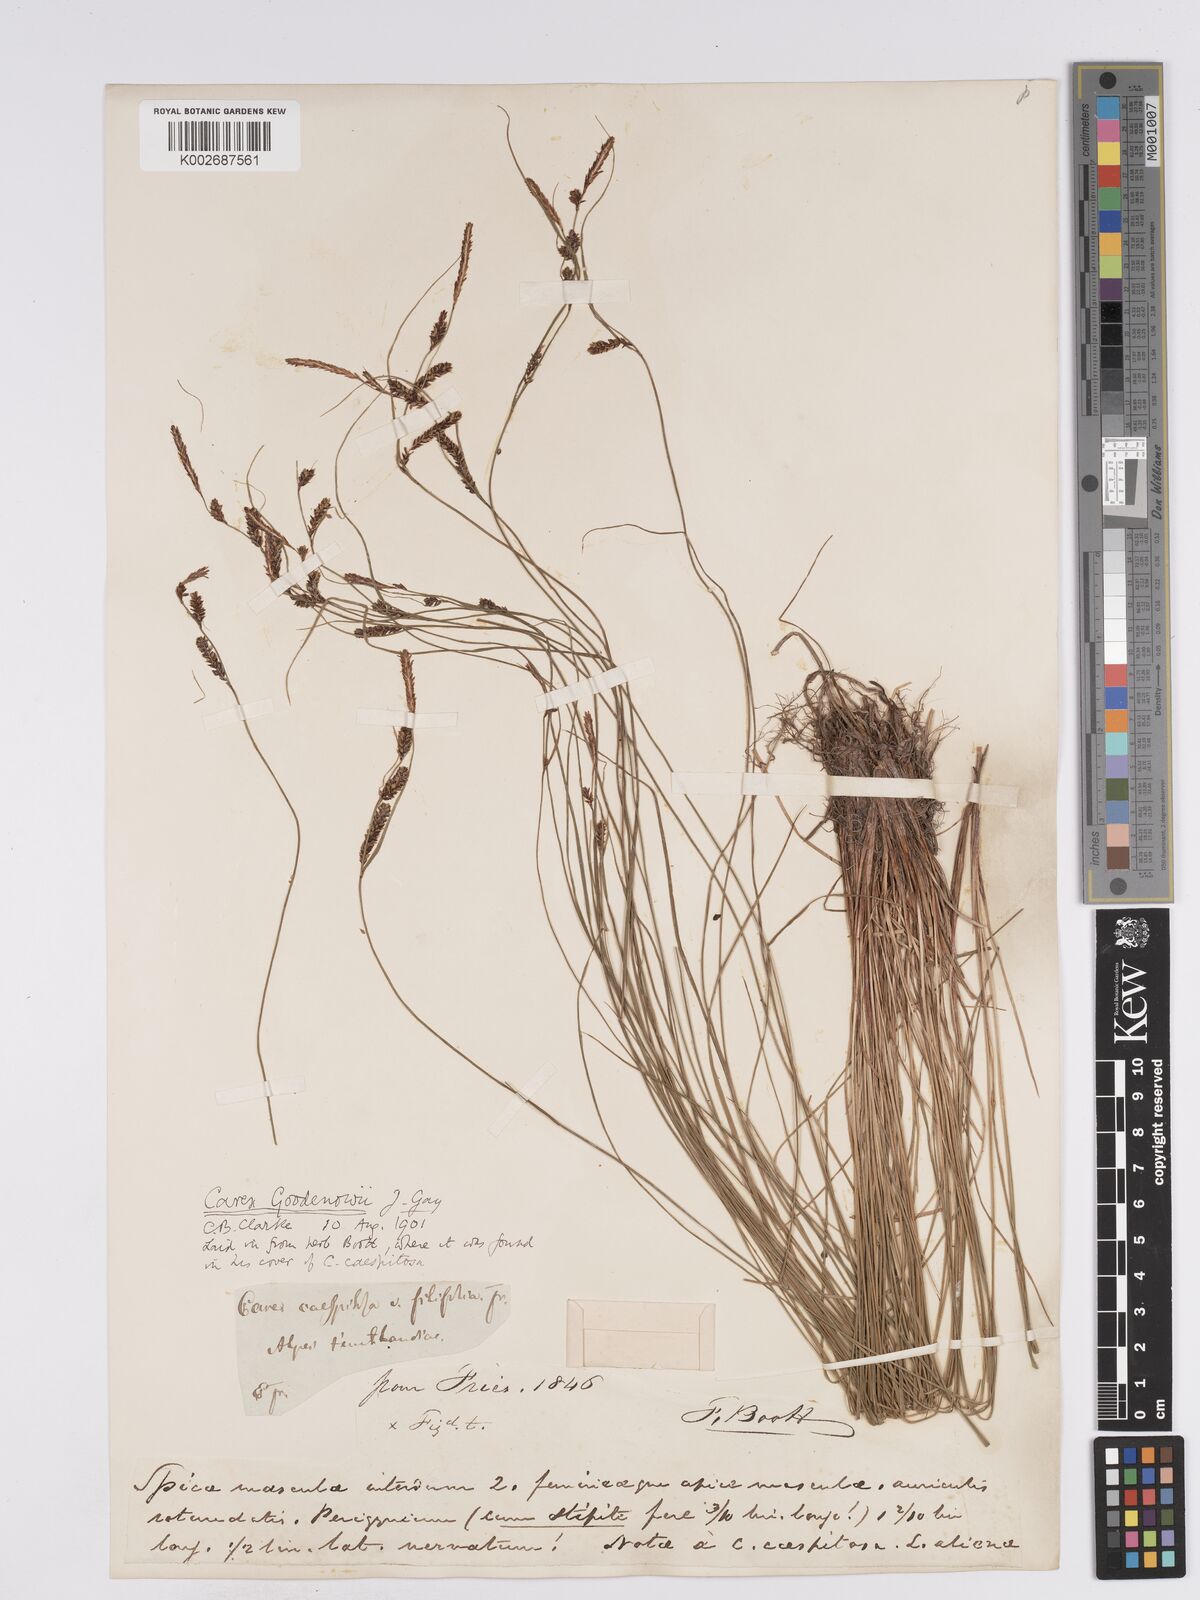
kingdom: Plantae
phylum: Tracheophyta
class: Liliopsida
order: Poales
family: Cyperaceae
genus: Carex
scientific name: Carex nigra
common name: Common sedge
